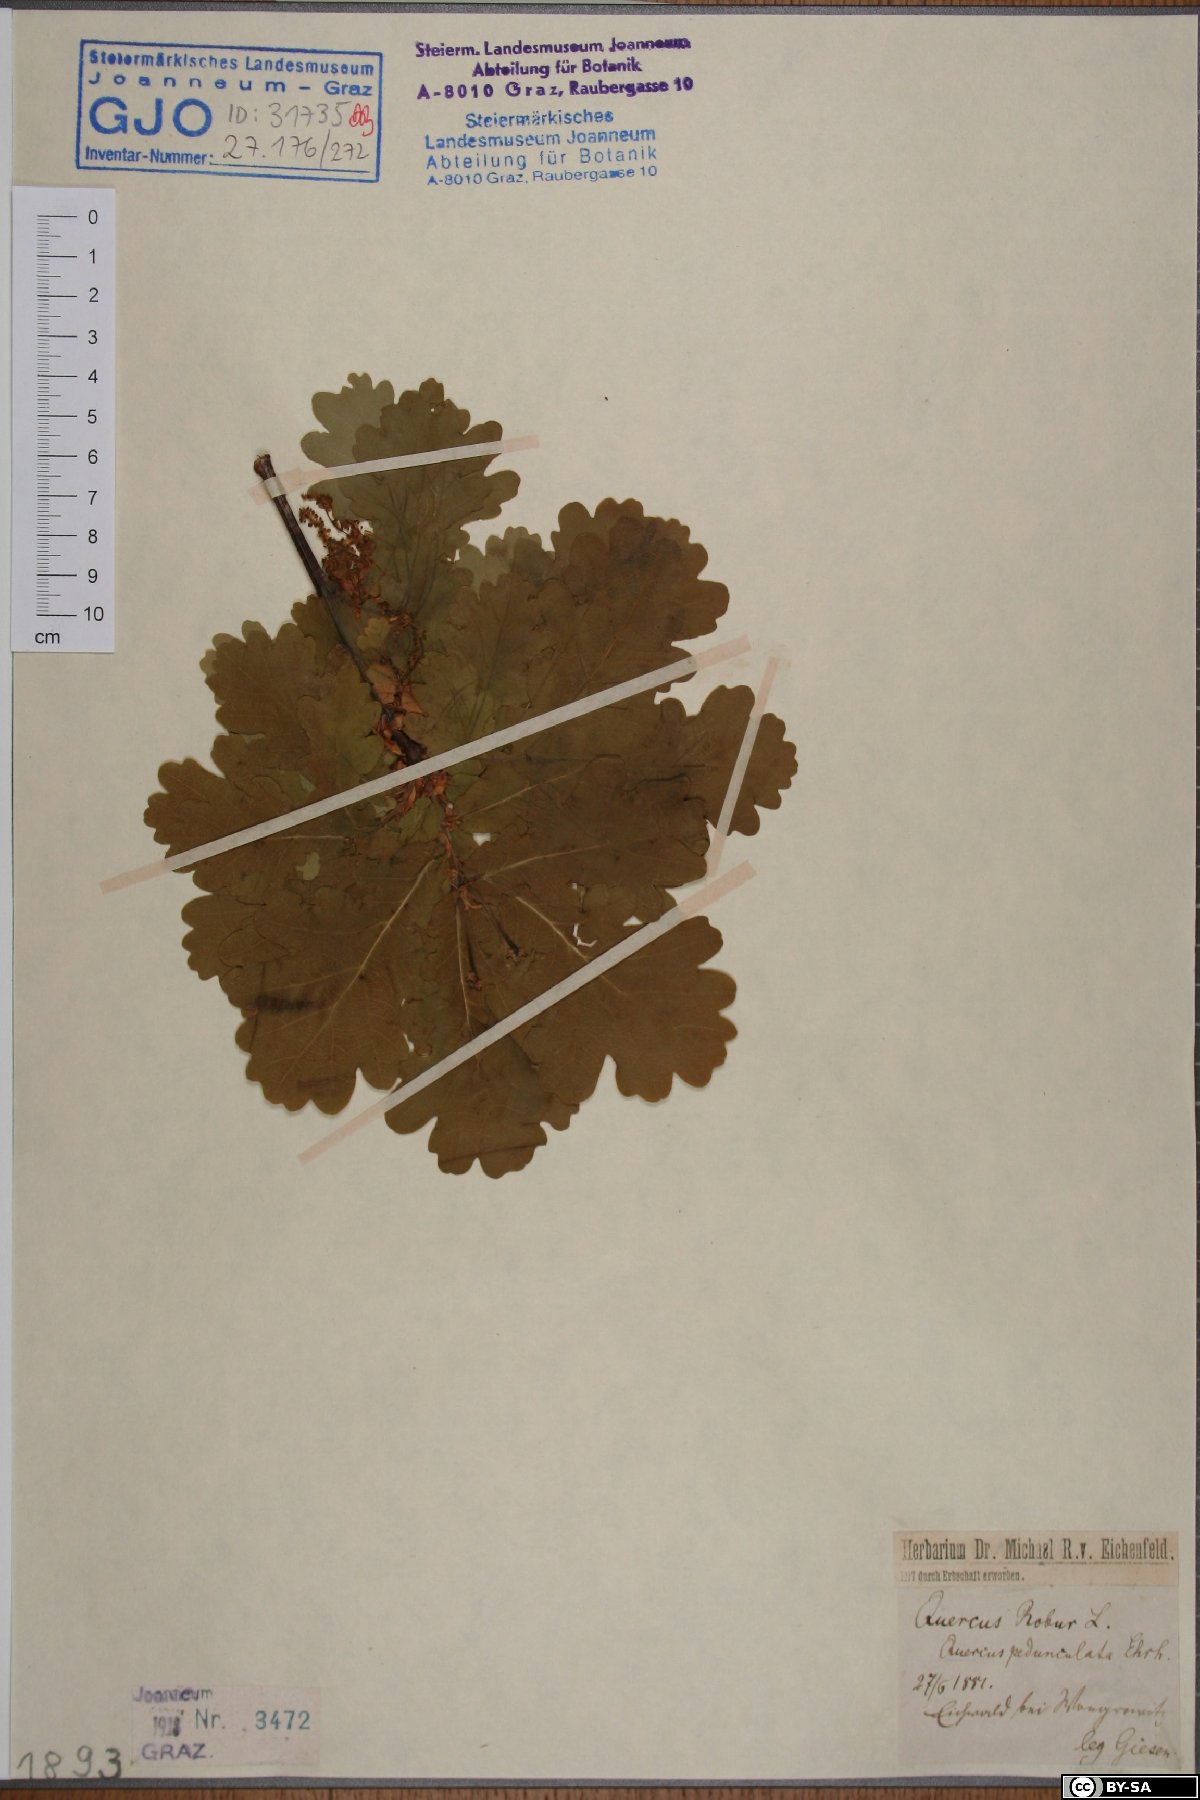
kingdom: Plantae
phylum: Tracheophyta
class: Magnoliopsida
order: Fagales
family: Fagaceae
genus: Quercus
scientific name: Quercus robur
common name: Pedunculate oak
